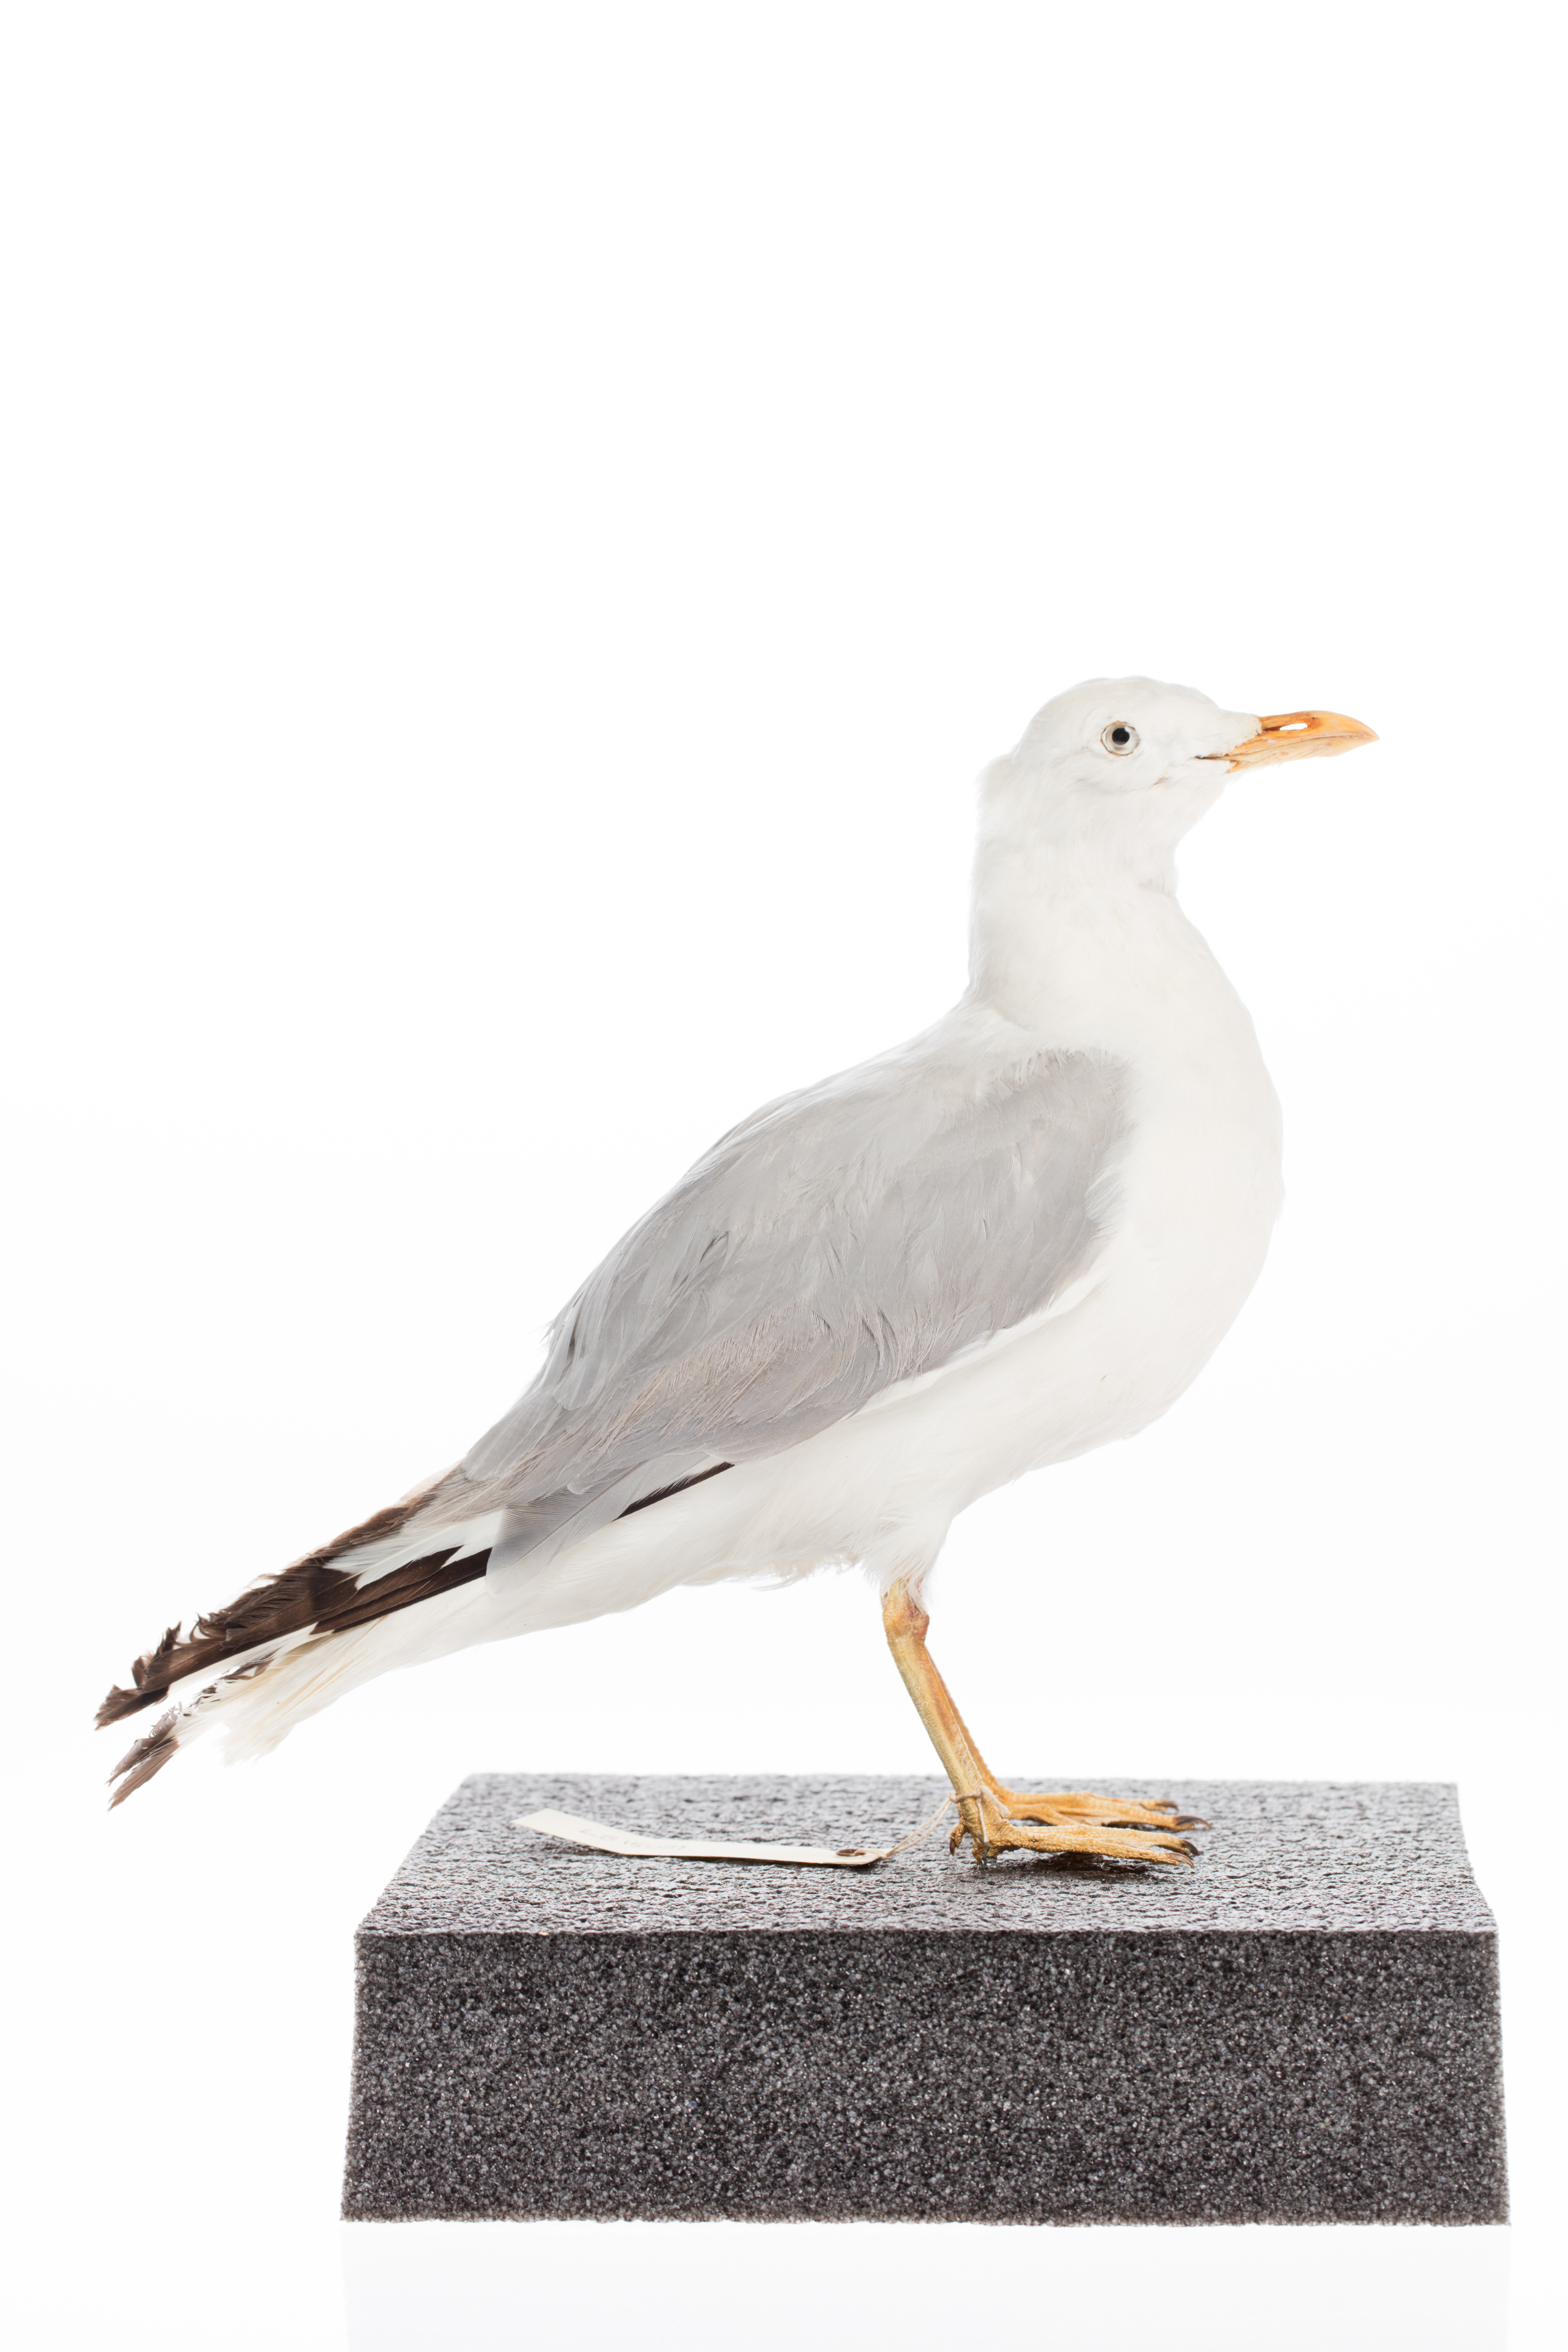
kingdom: Animalia
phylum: Chordata
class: Aves
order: Charadriiformes
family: Laridae
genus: Chroicocephalus
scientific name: Chroicocephalus novaehollandiae
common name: Silver gull
